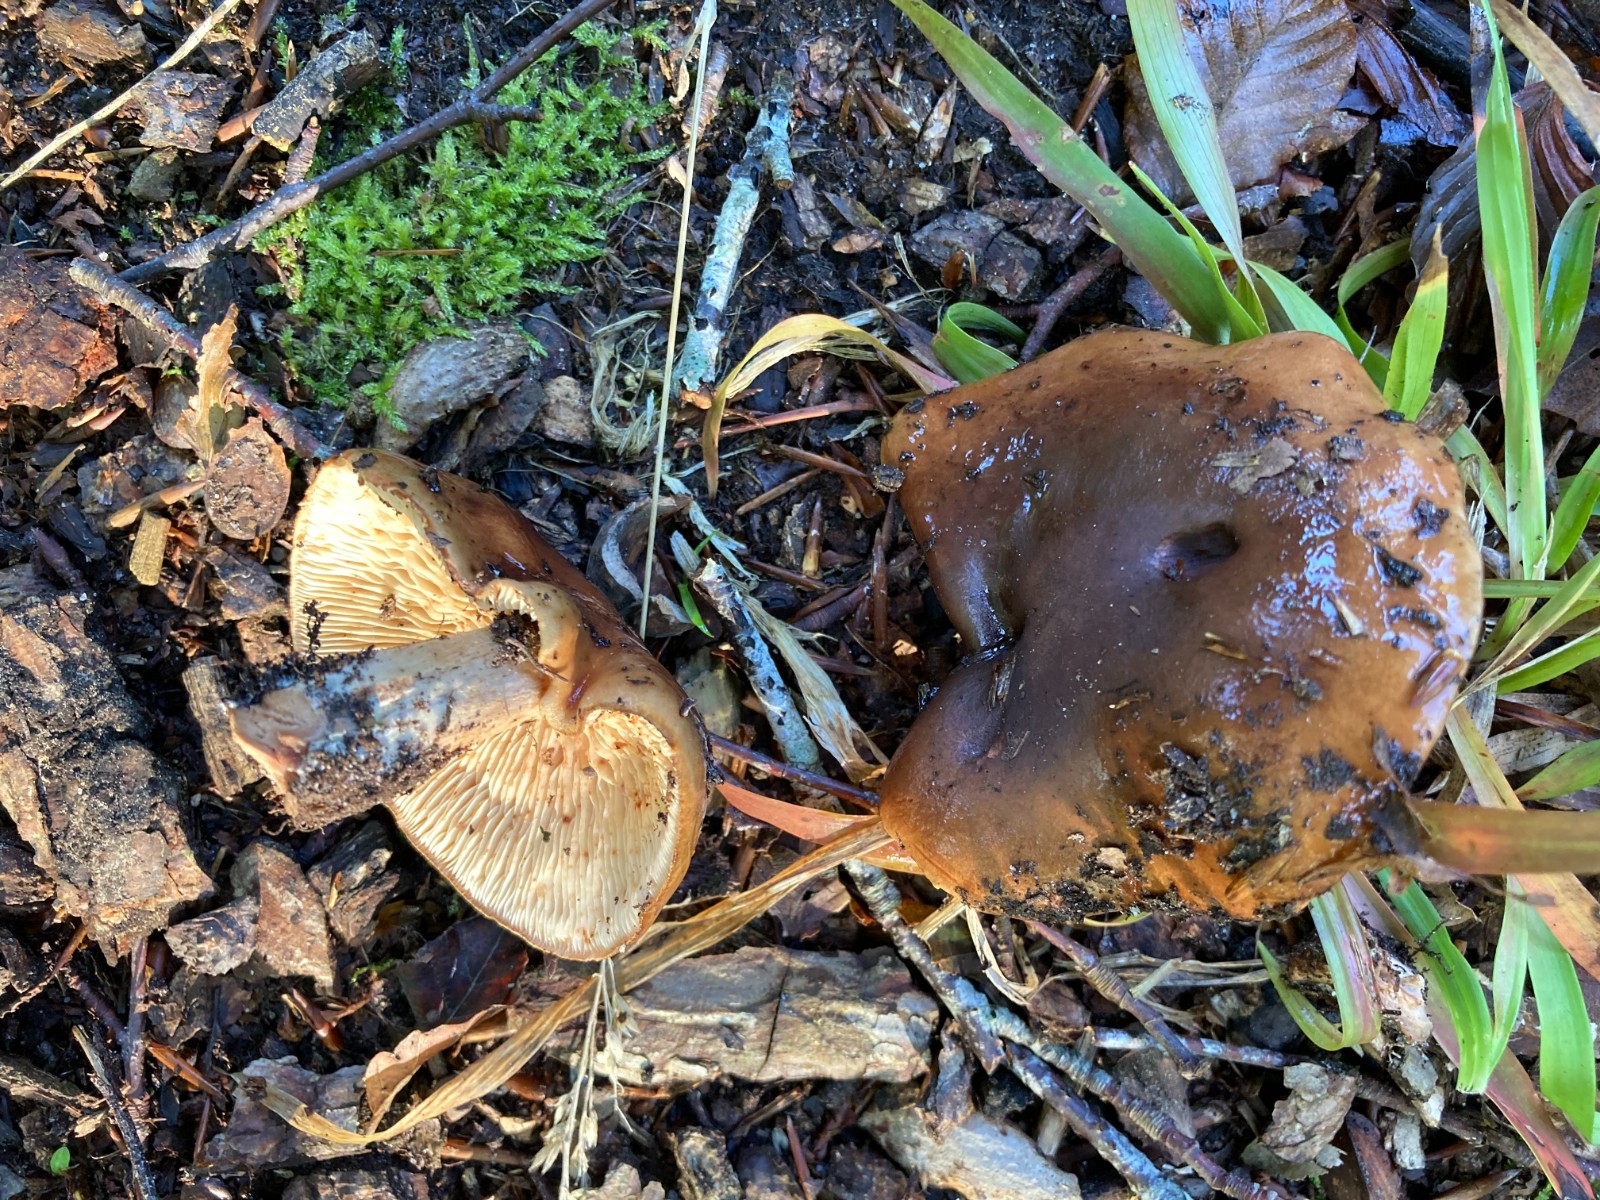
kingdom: Fungi
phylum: Basidiomycota
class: Agaricomycetes
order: Agaricales
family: Tricholomataceae
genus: Tricholoma
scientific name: Tricholoma ustale
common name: sveden ridderhat
